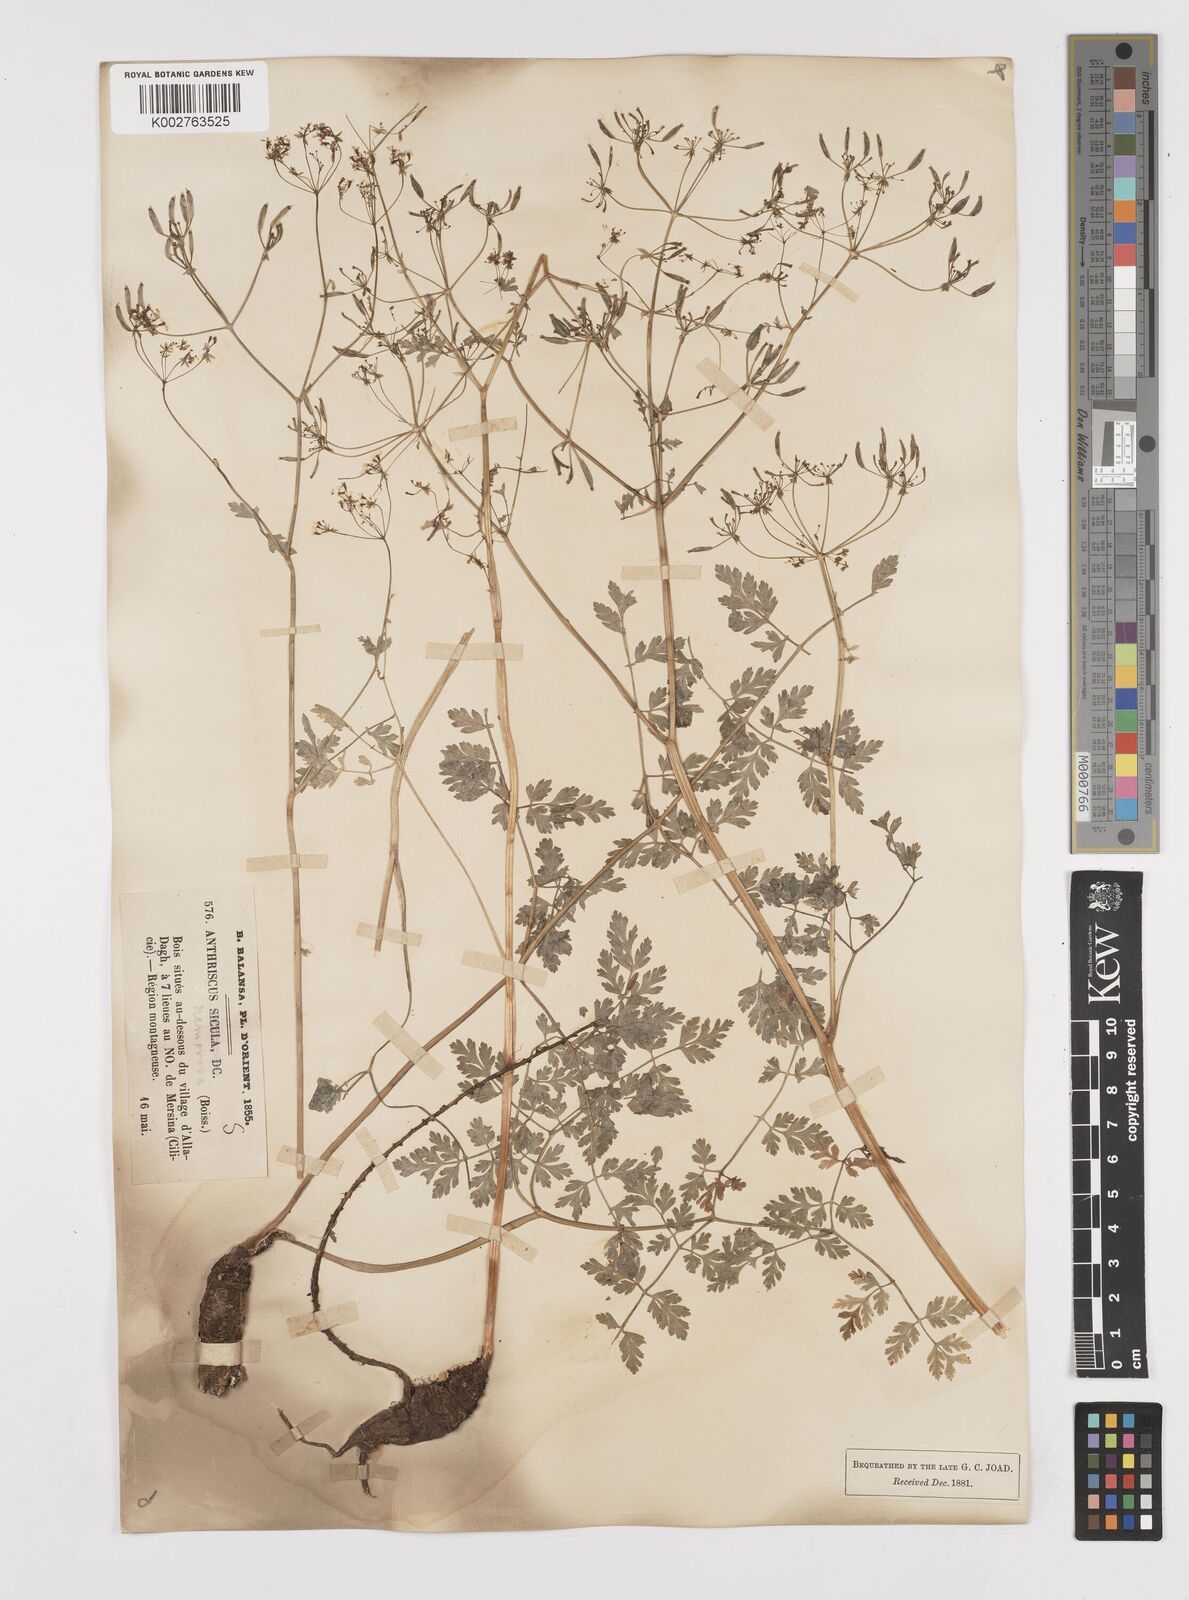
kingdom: Plantae
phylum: Tracheophyta
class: Magnoliopsida
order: Apiales
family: Apiaceae
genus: Anthriscus
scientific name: Anthriscus sylvestris
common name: Cow parsley
